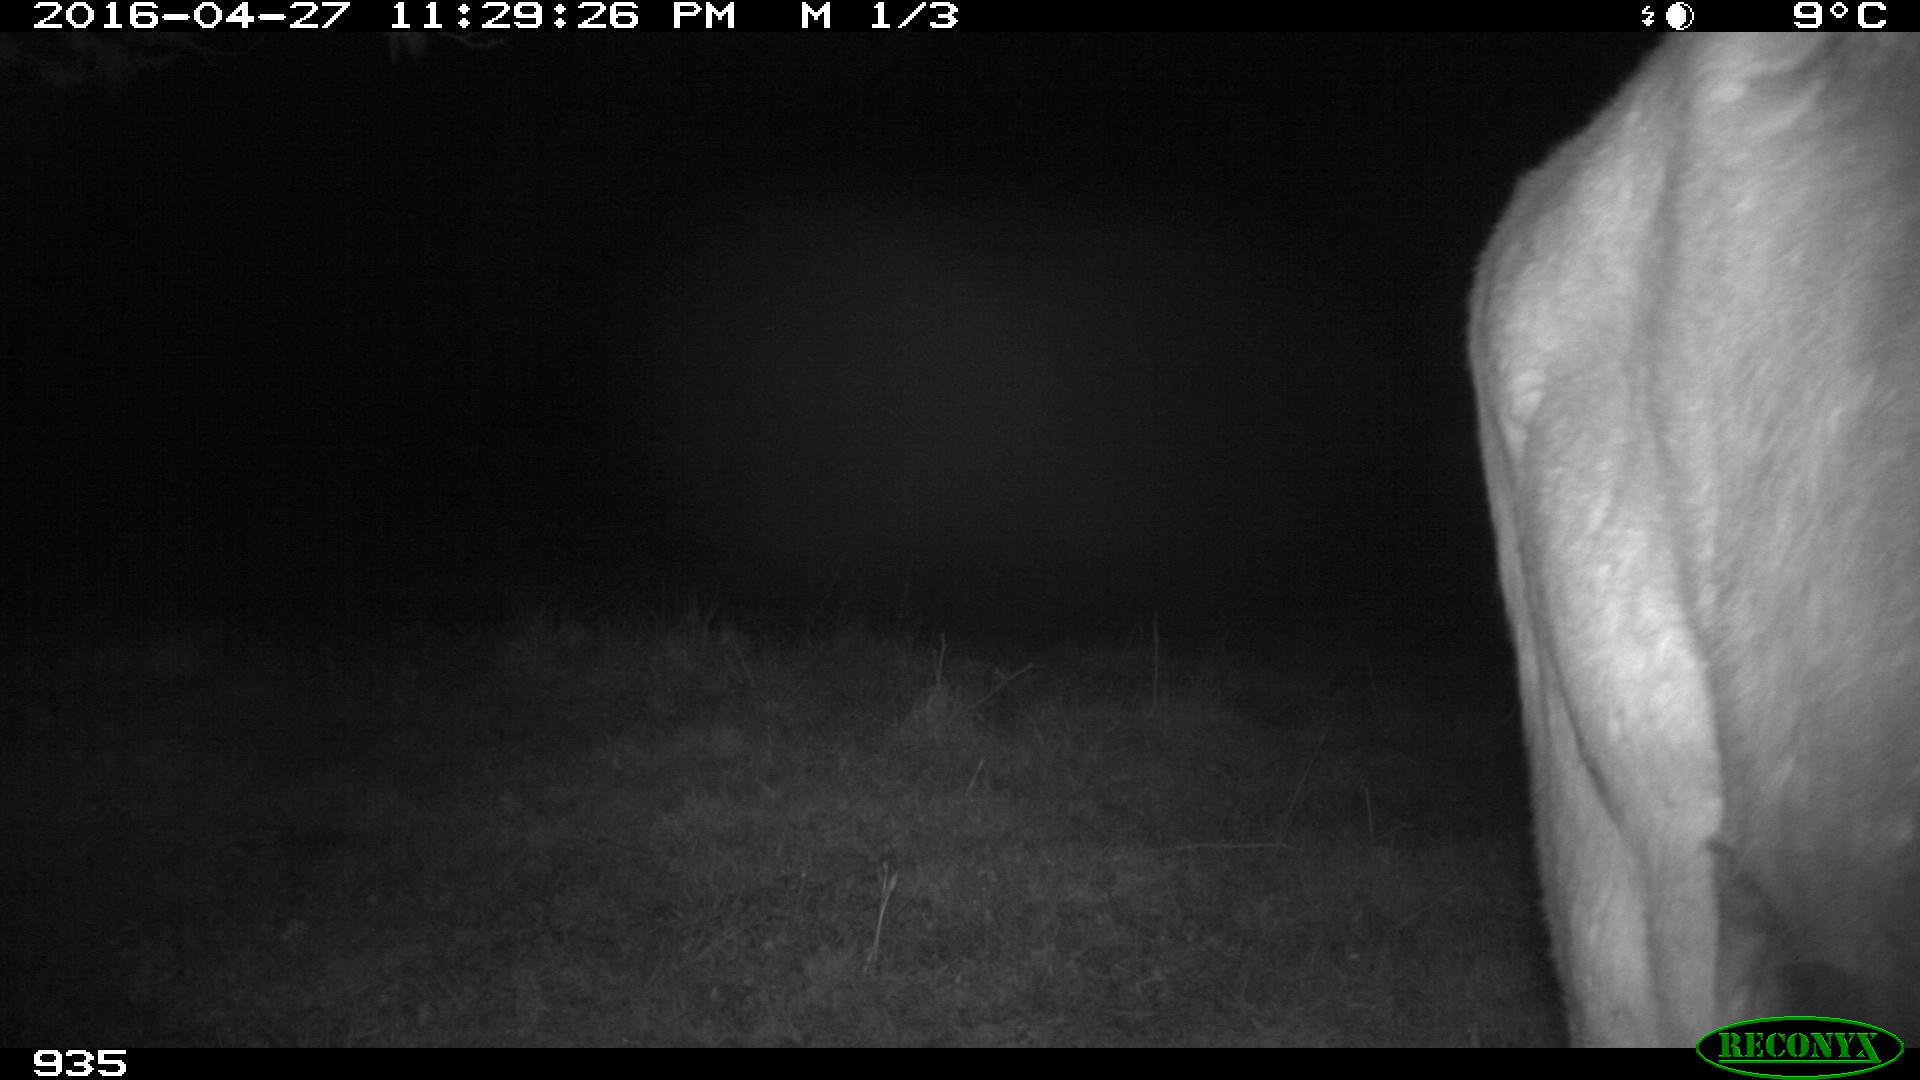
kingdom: Animalia
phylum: Chordata
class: Mammalia
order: Artiodactyla
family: Bovidae
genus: Bos
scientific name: Bos taurus
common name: Domesticated cattle
